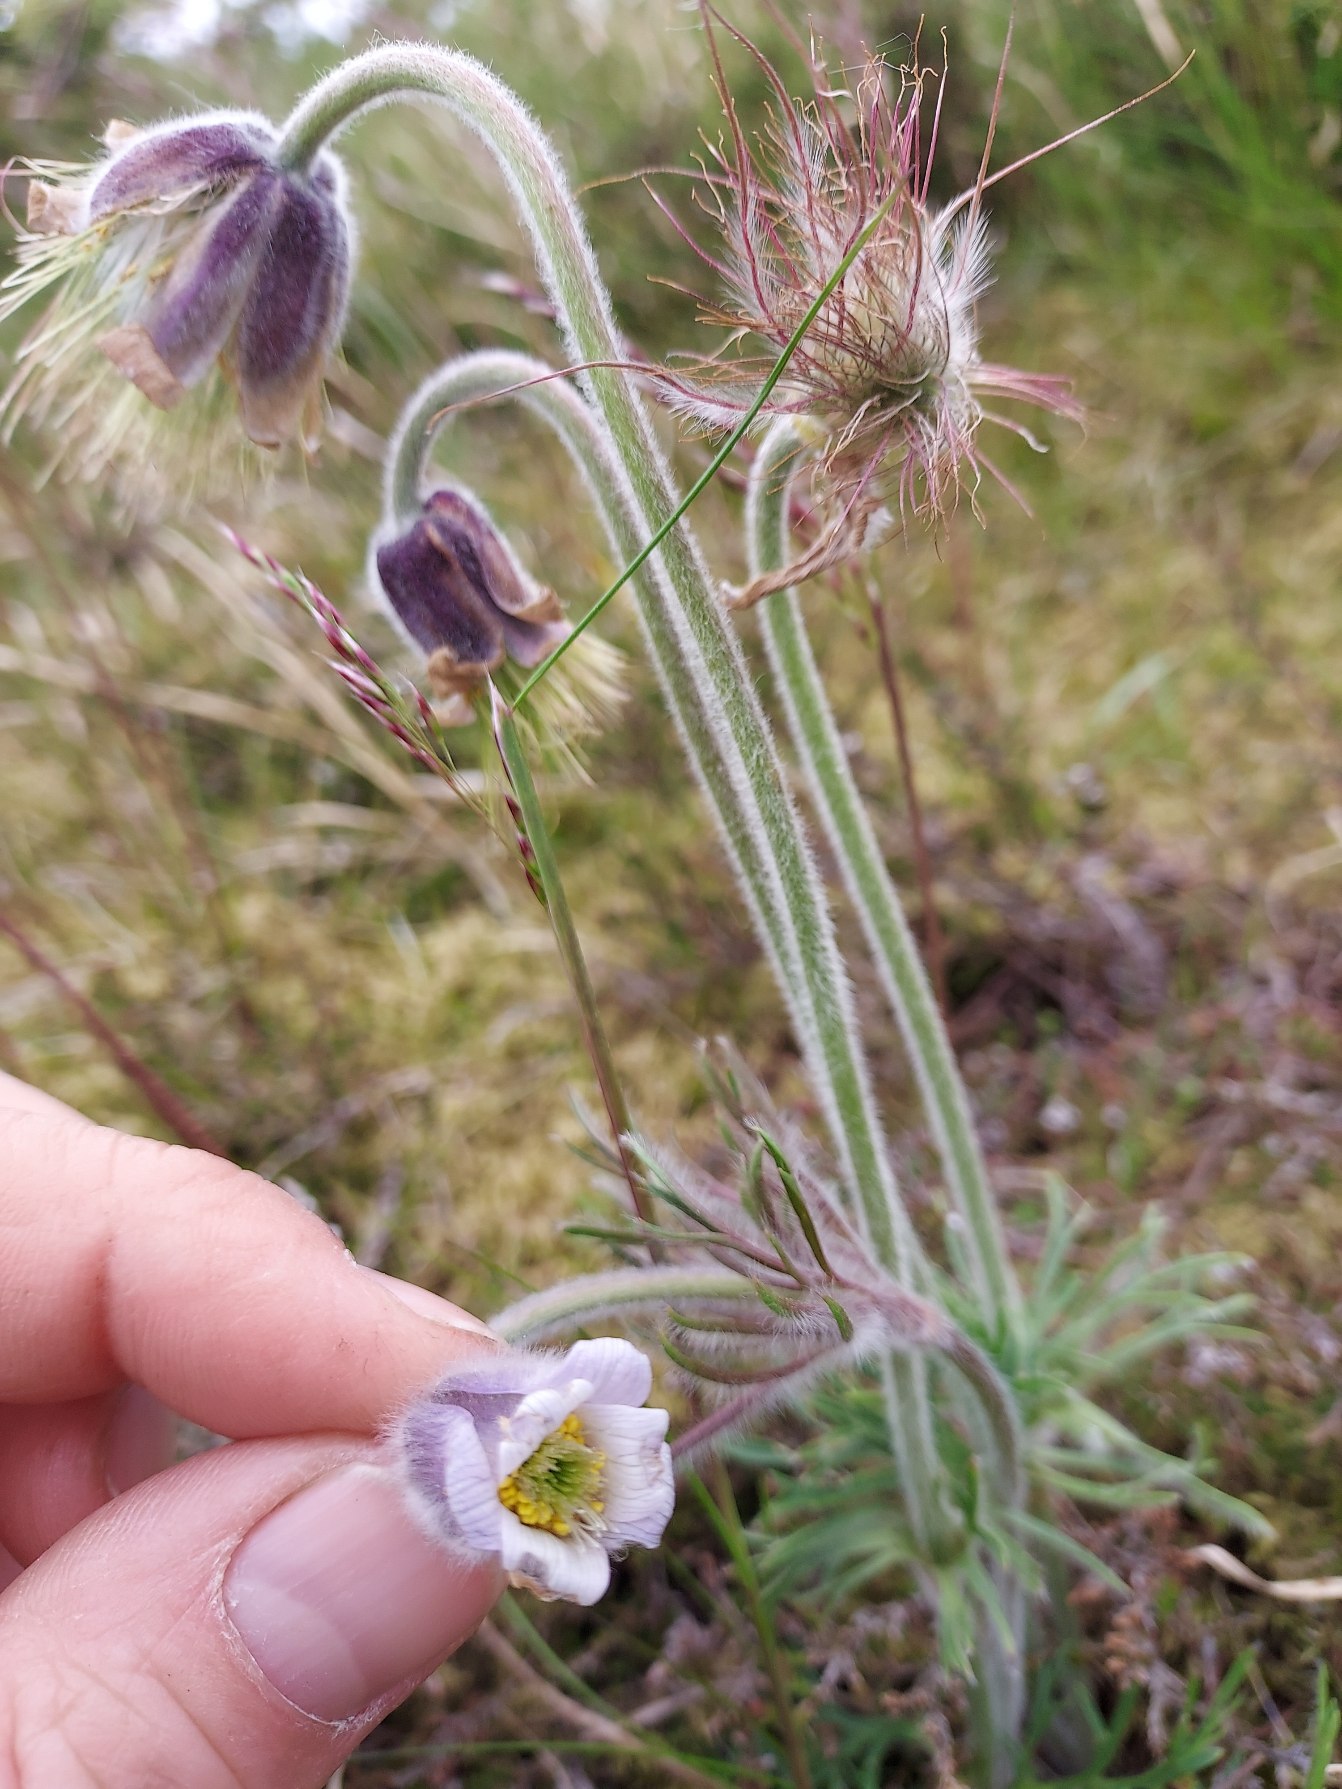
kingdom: Plantae
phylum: Tracheophyta
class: Magnoliopsida
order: Ranunculales
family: Ranunculaceae
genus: Pulsatilla
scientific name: Pulsatilla pratensis
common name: Nikkende kobjælde
